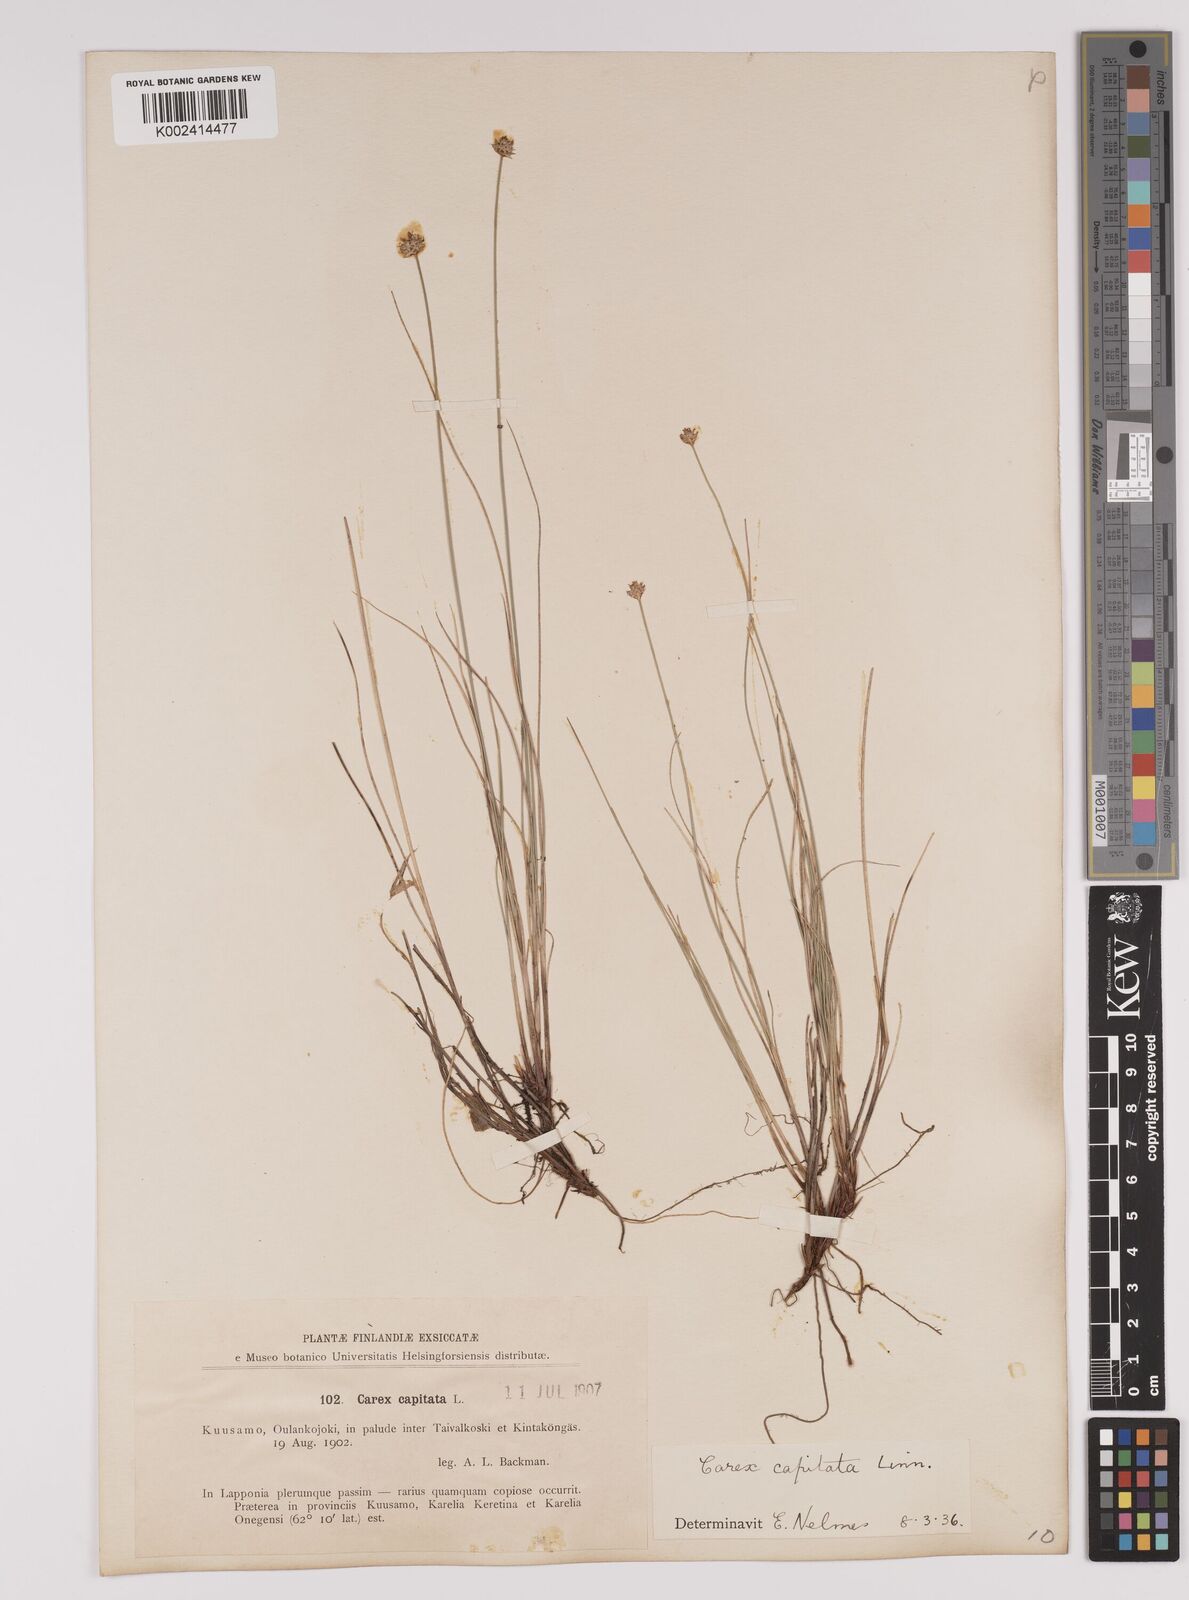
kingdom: Plantae
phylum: Tracheophyta
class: Liliopsida
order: Poales
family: Cyperaceae
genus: Carex
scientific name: Carex capitata
